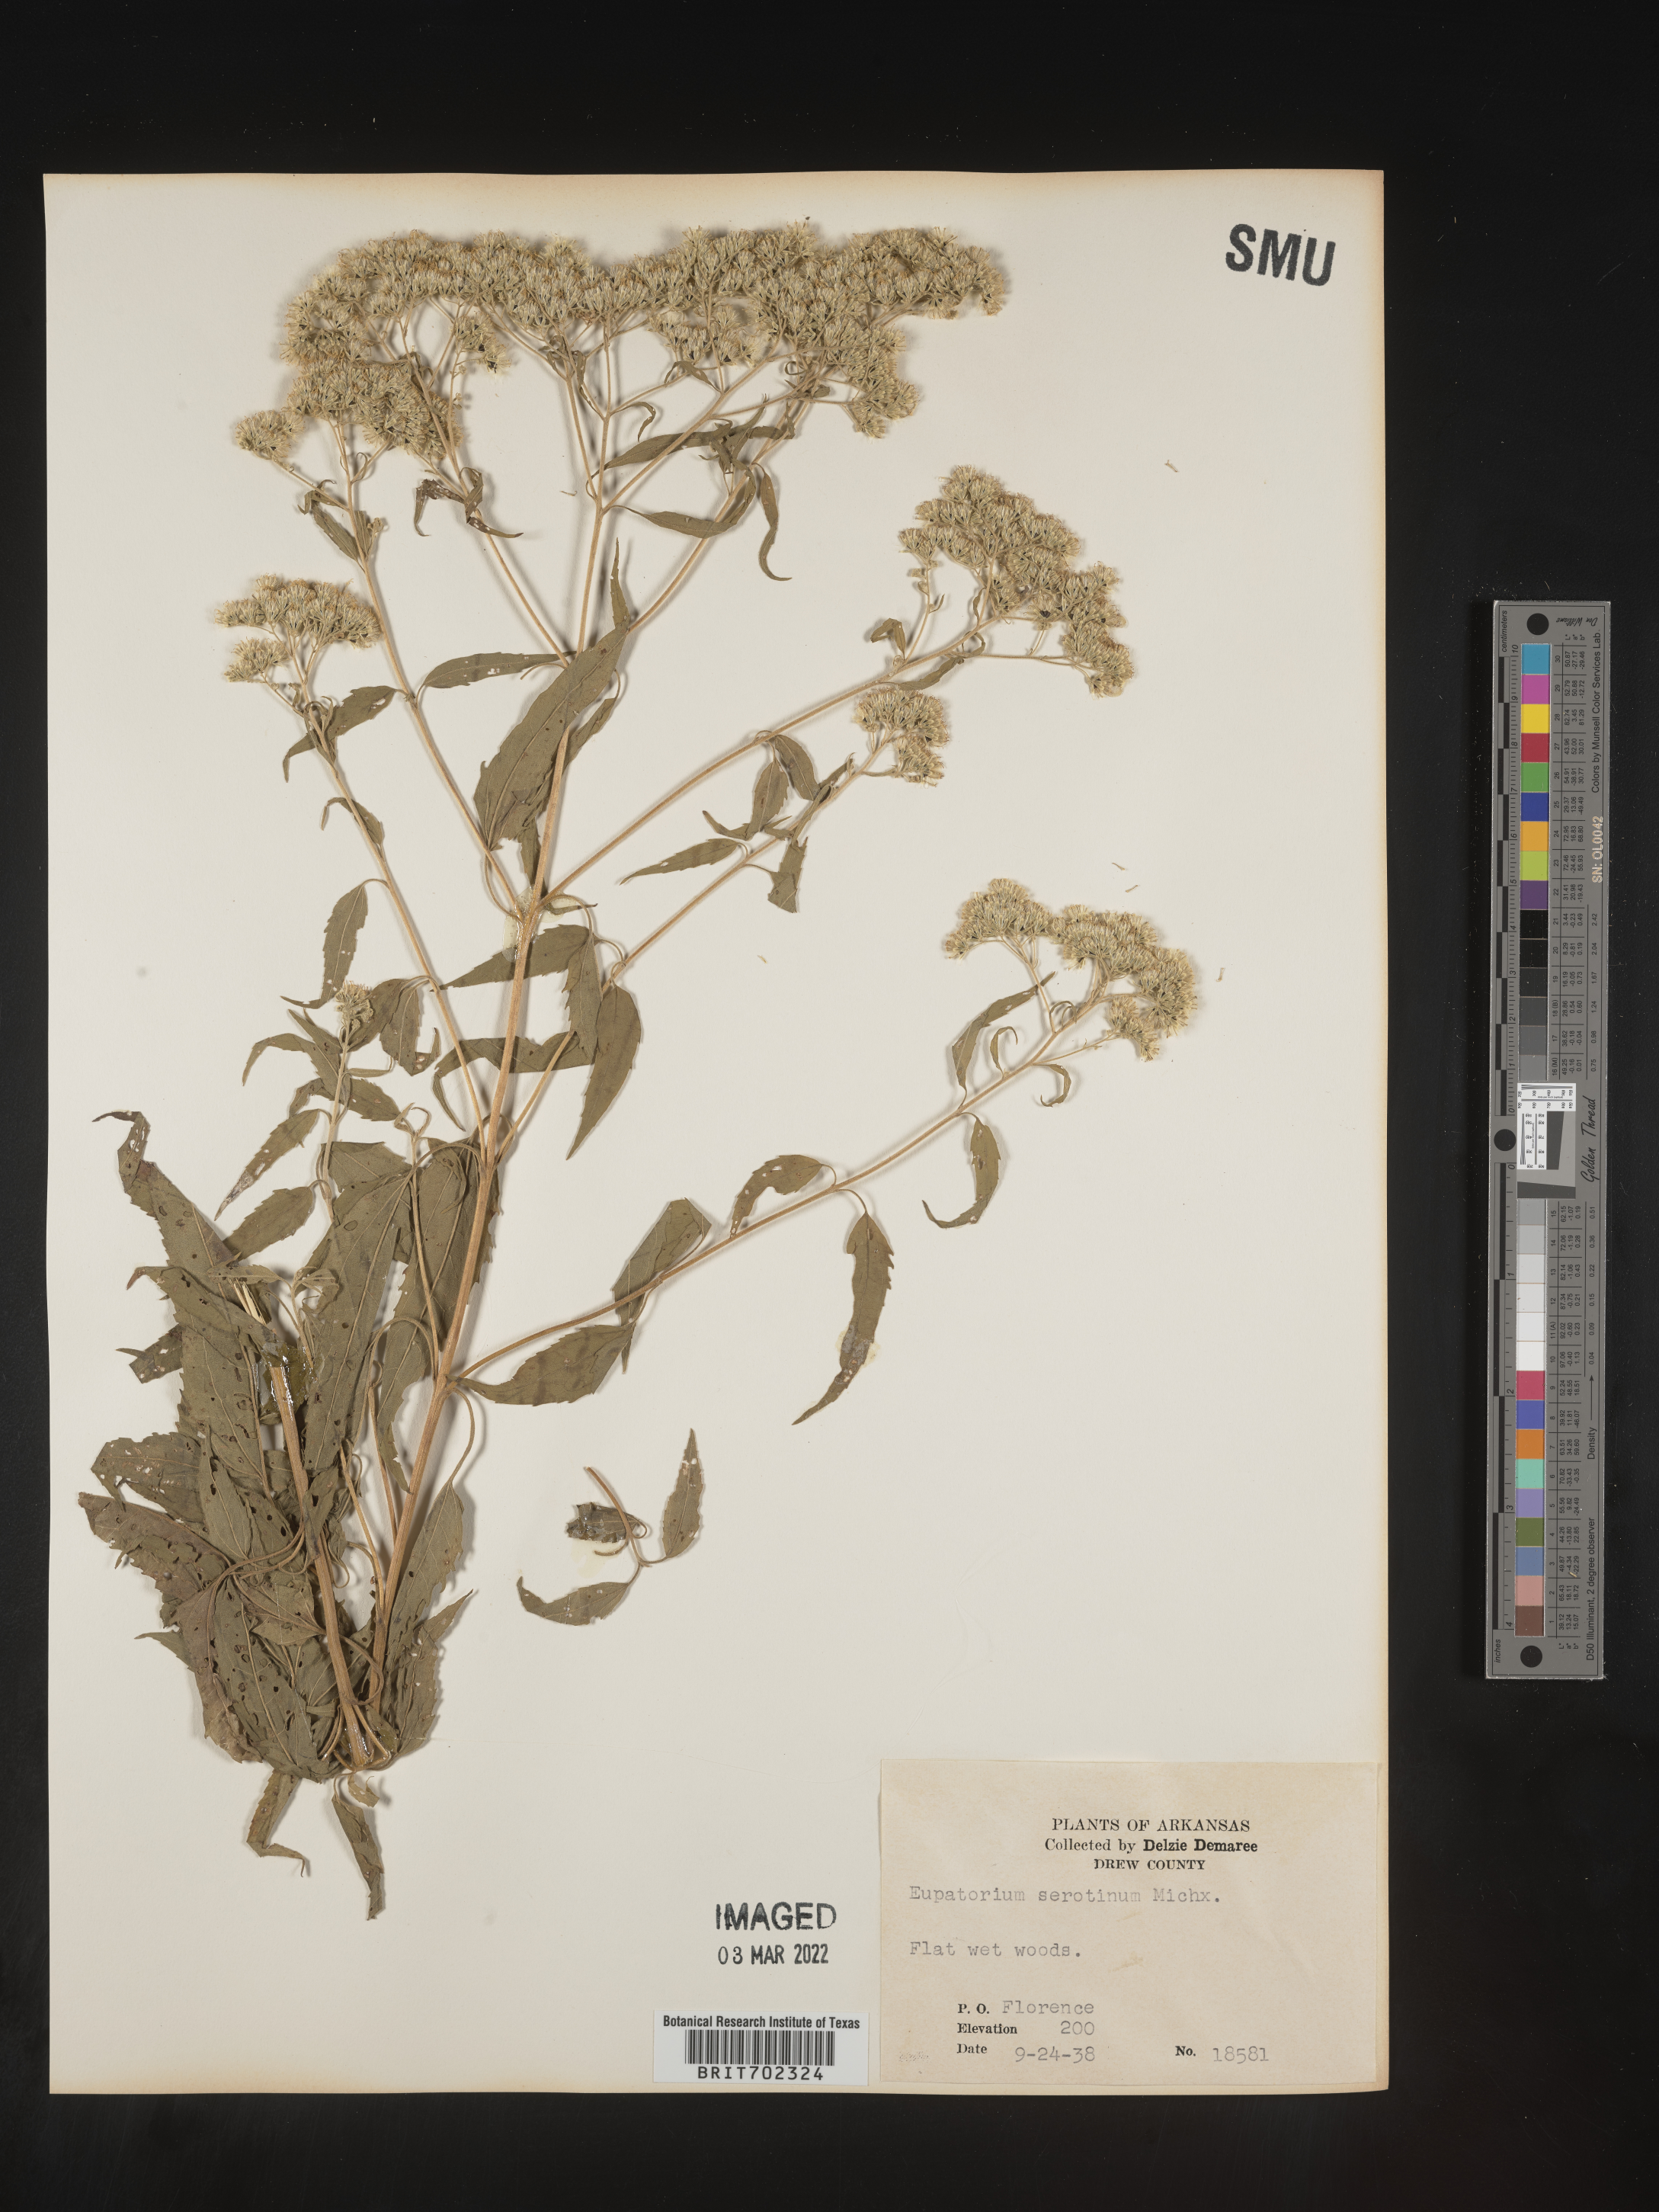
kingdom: Plantae
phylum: Tracheophyta
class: Magnoliopsida
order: Asterales
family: Asteraceae
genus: Eupatorium
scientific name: Eupatorium serotinum
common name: Late boneset
